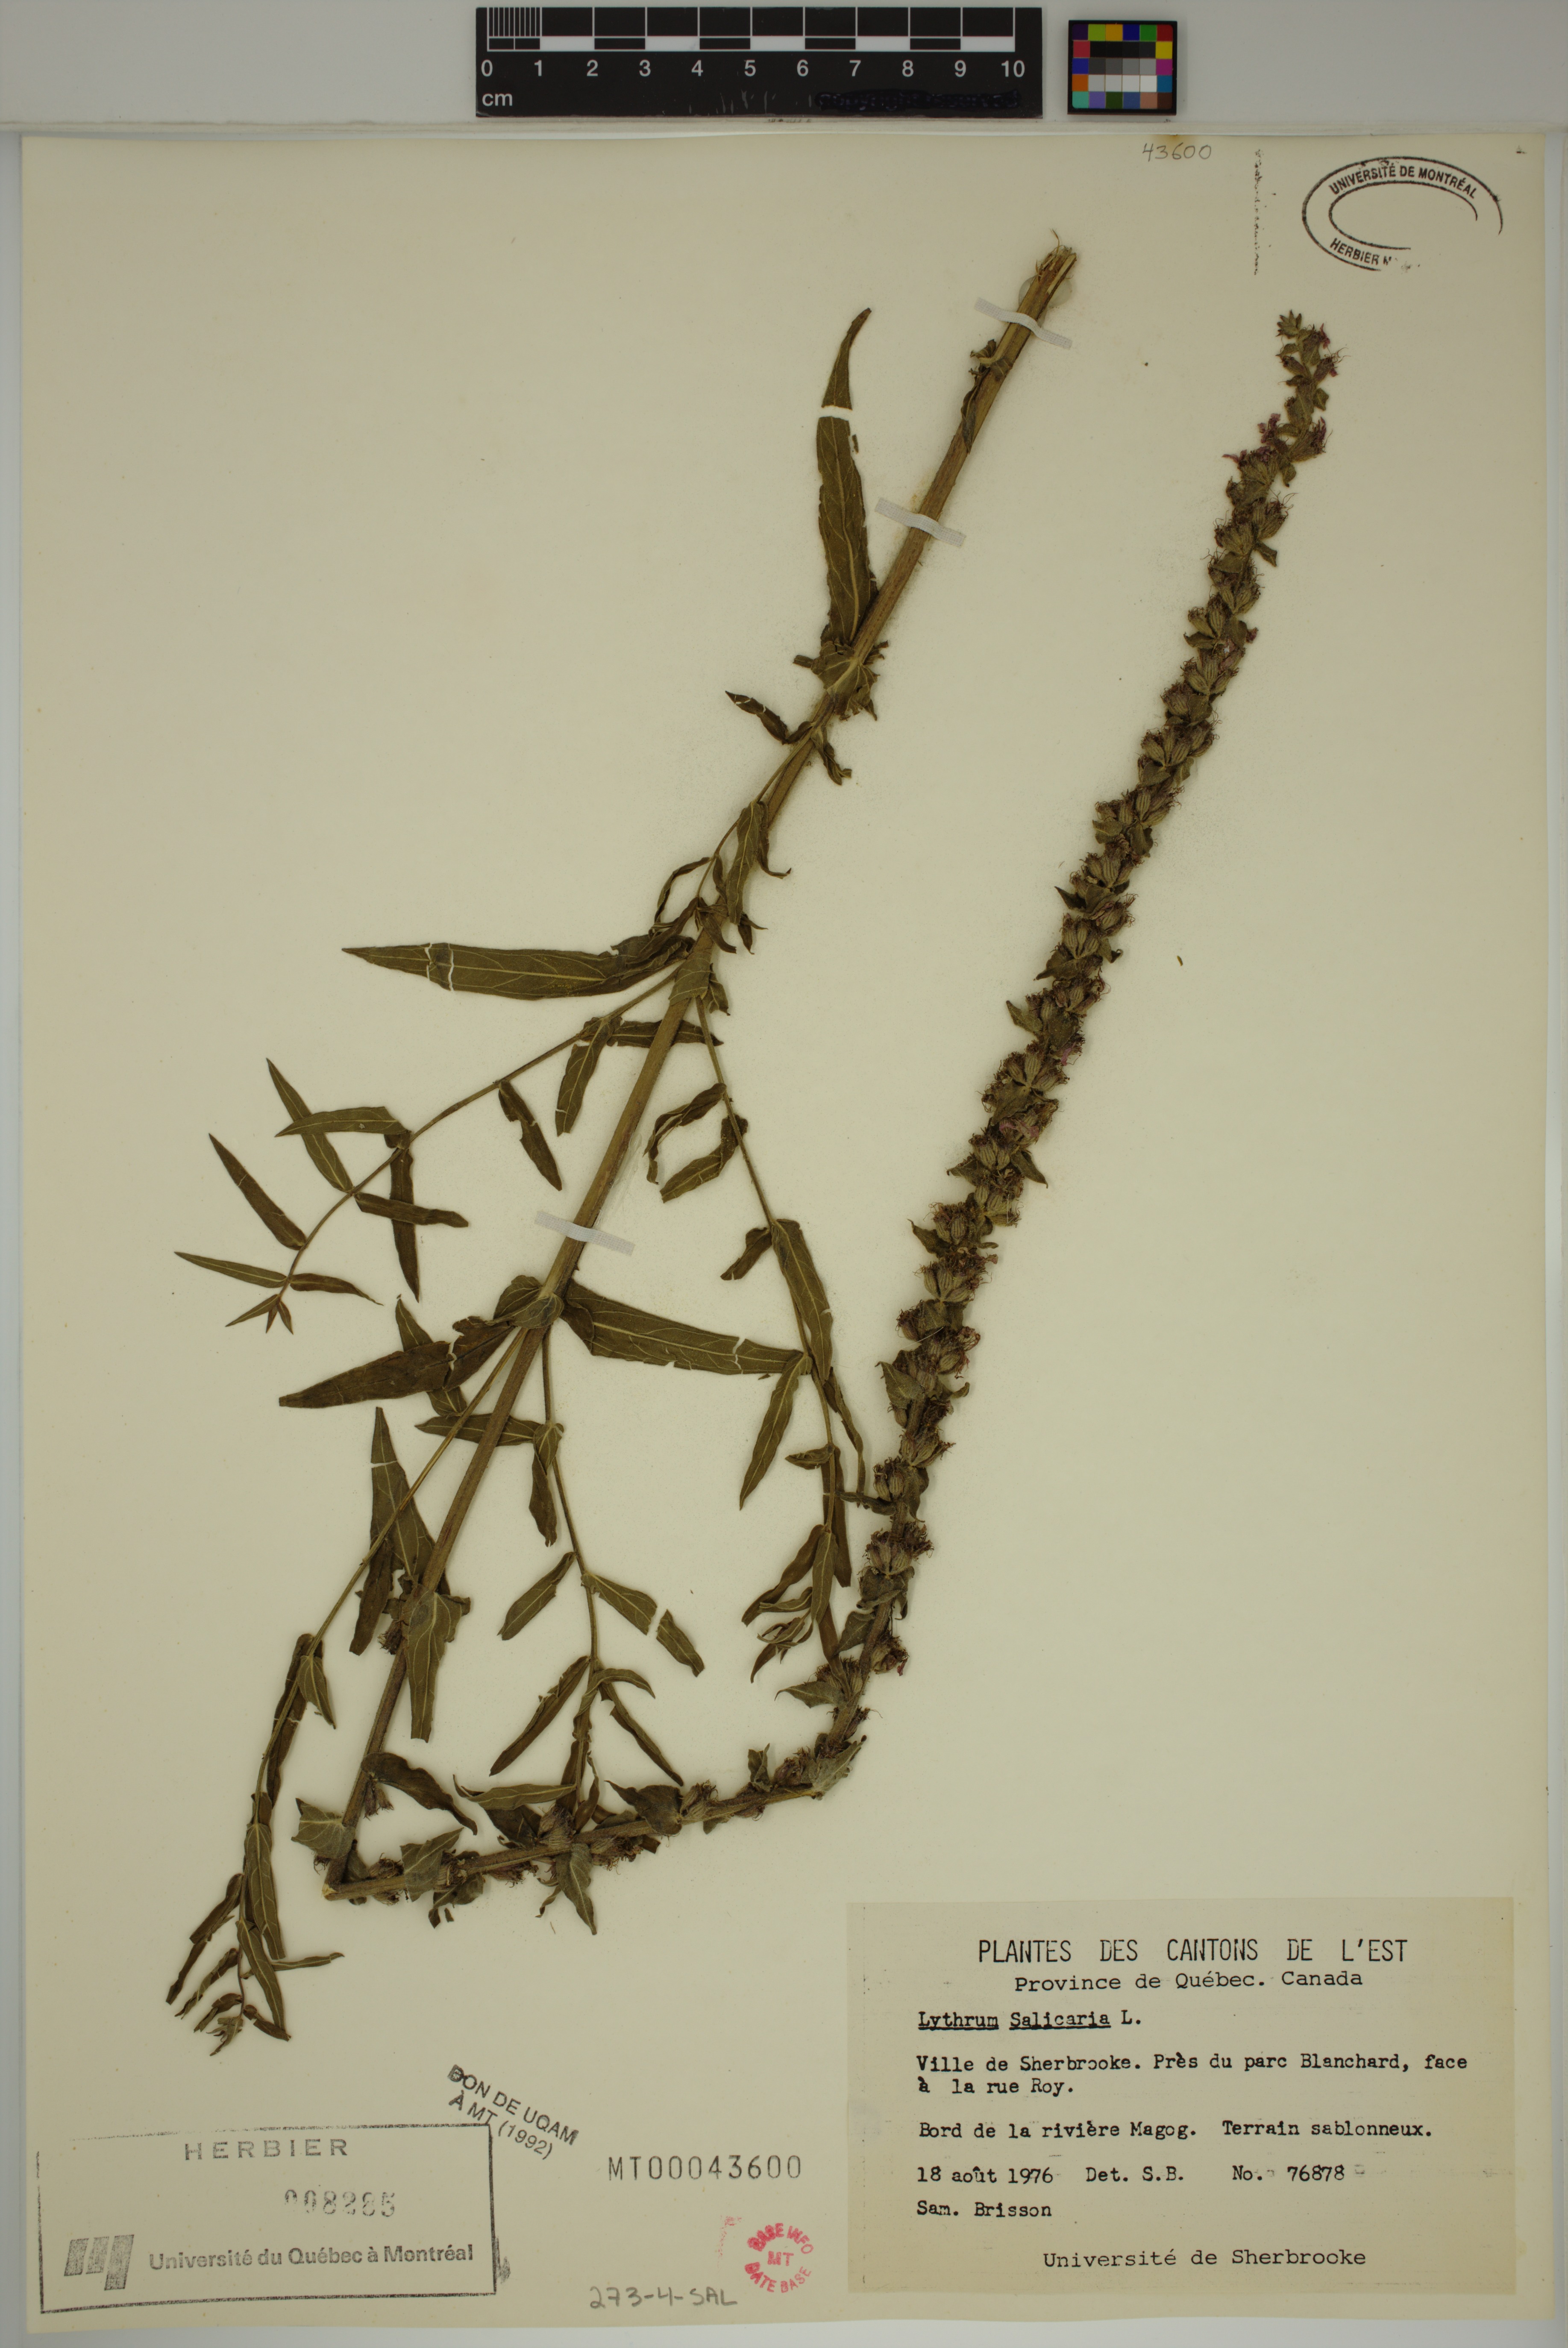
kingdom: Plantae
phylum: Tracheophyta
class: Magnoliopsida
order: Myrtales
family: Lythraceae
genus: Lythrum
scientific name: Lythrum salicaria
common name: Purple loosestrife
